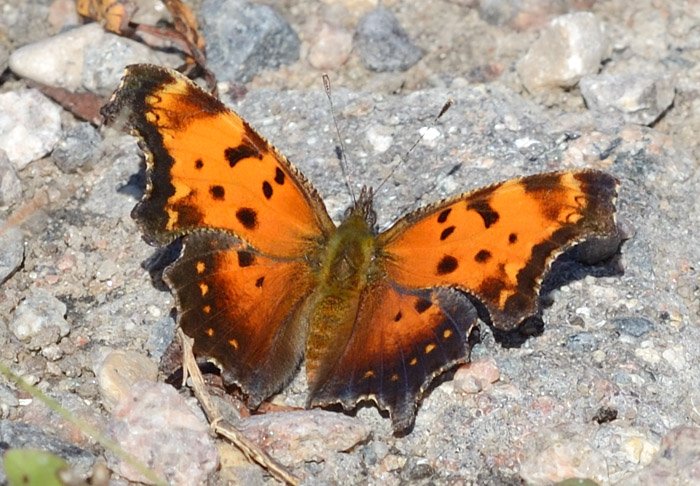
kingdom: Animalia
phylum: Arthropoda
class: Insecta
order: Lepidoptera
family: Nymphalidae
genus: Polygonia
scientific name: Polygonia progne
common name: Gray Comma
